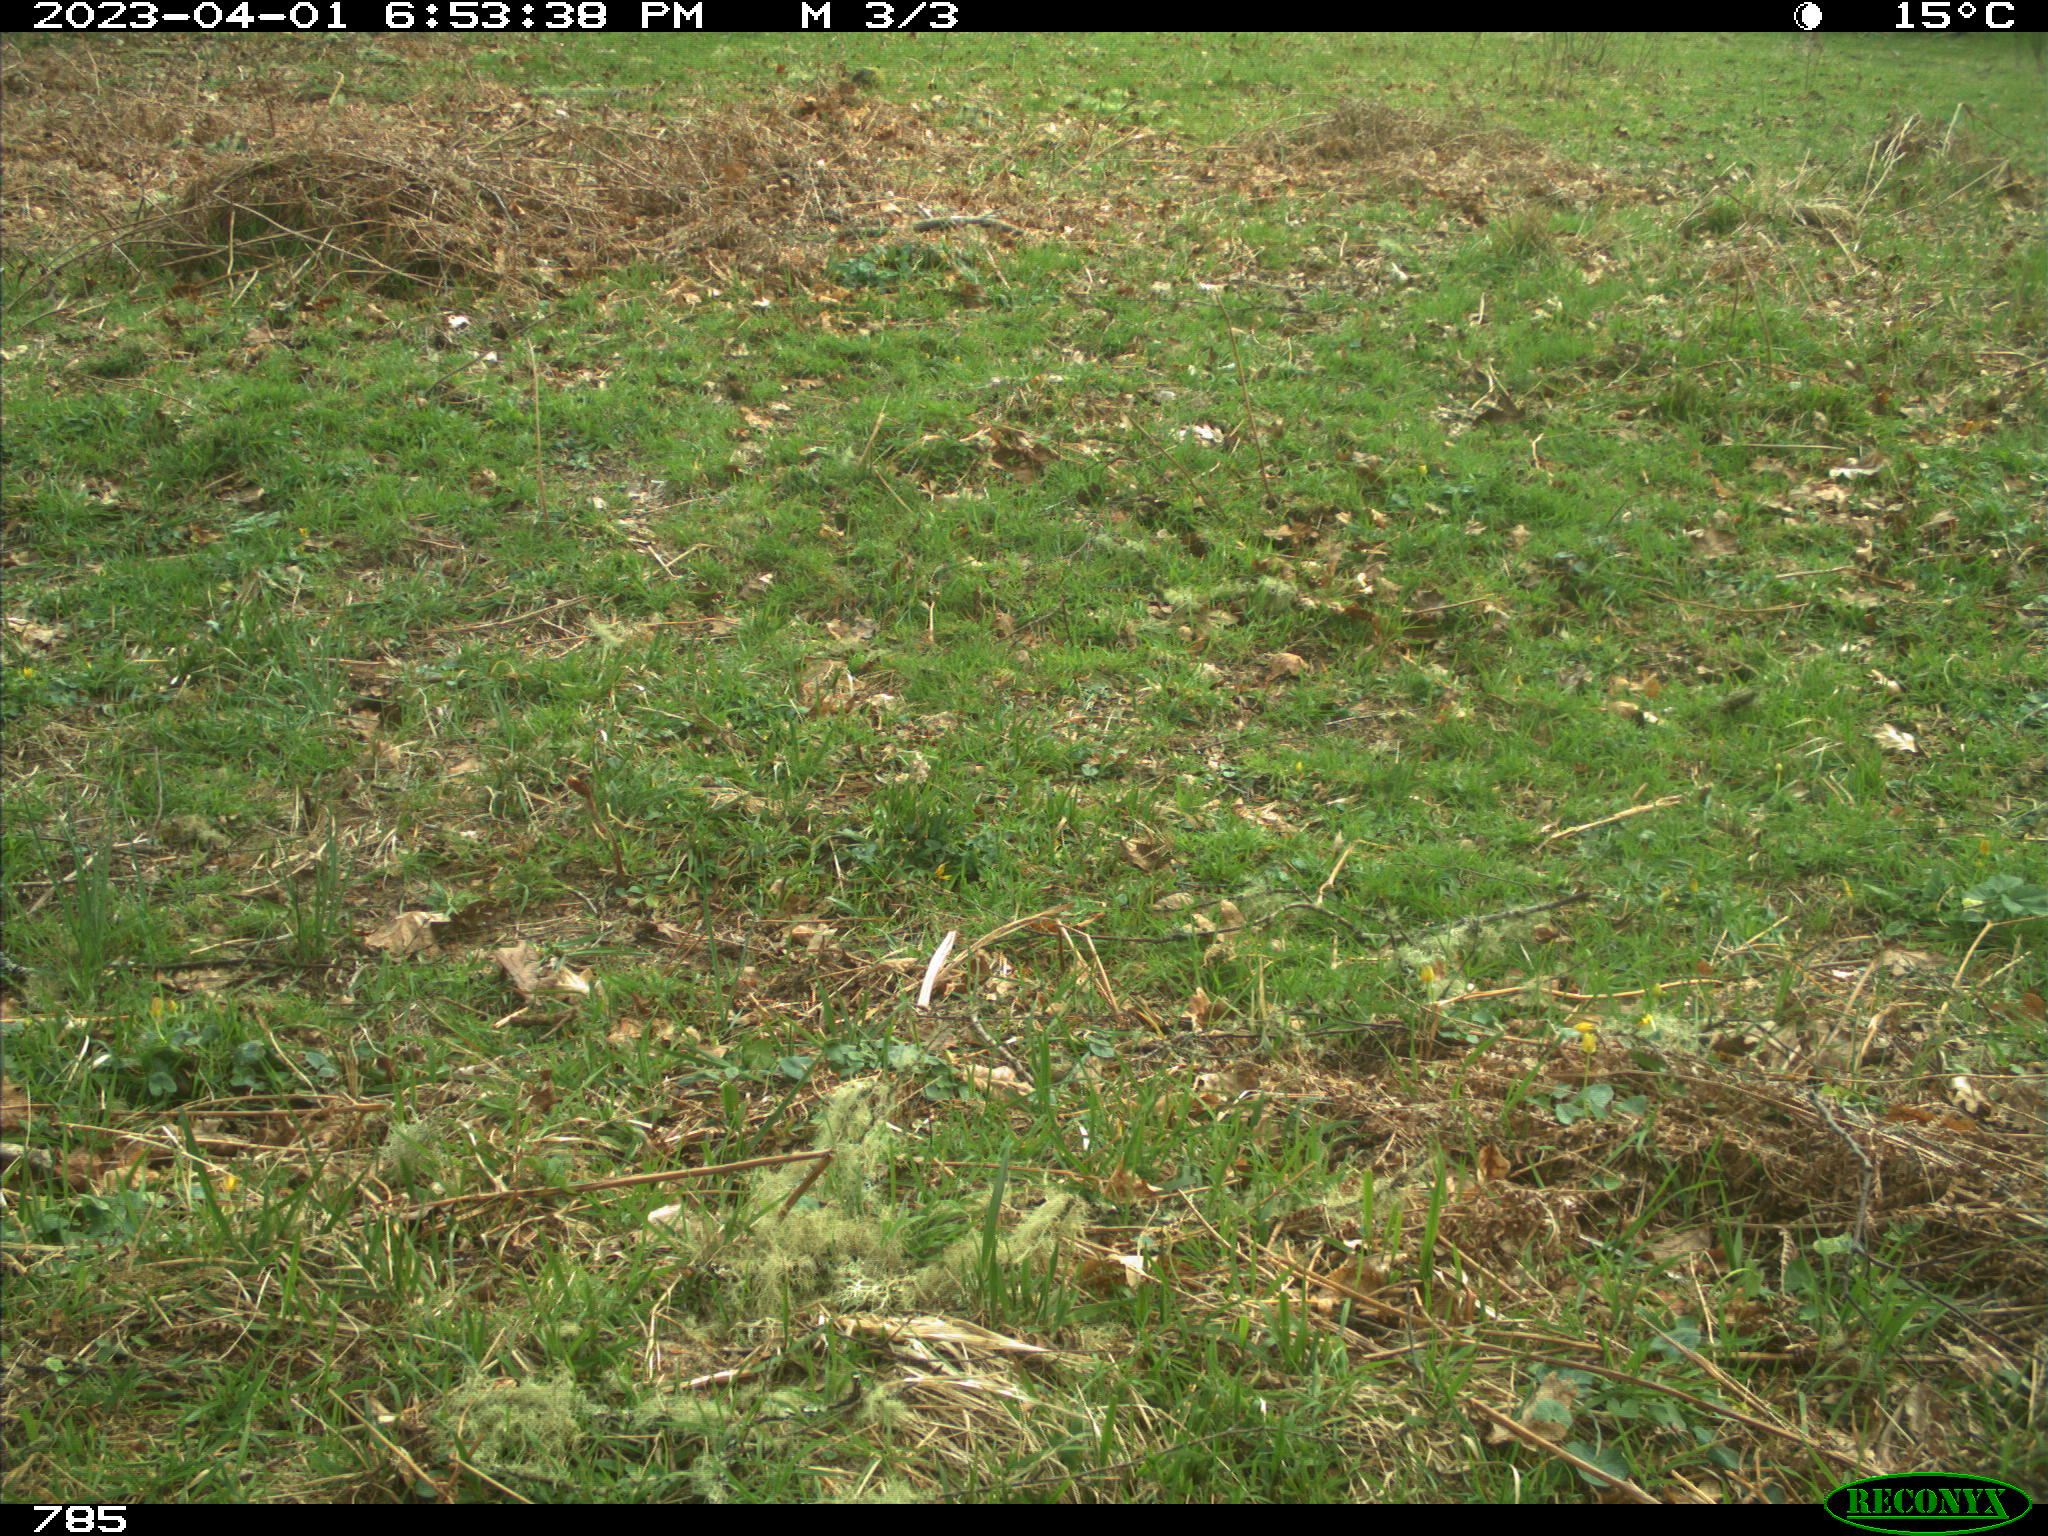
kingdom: Animalia
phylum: Chordata
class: Mammalia
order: Perissodactyla
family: Equidae
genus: Equus
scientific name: Equus caballus
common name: Horse
